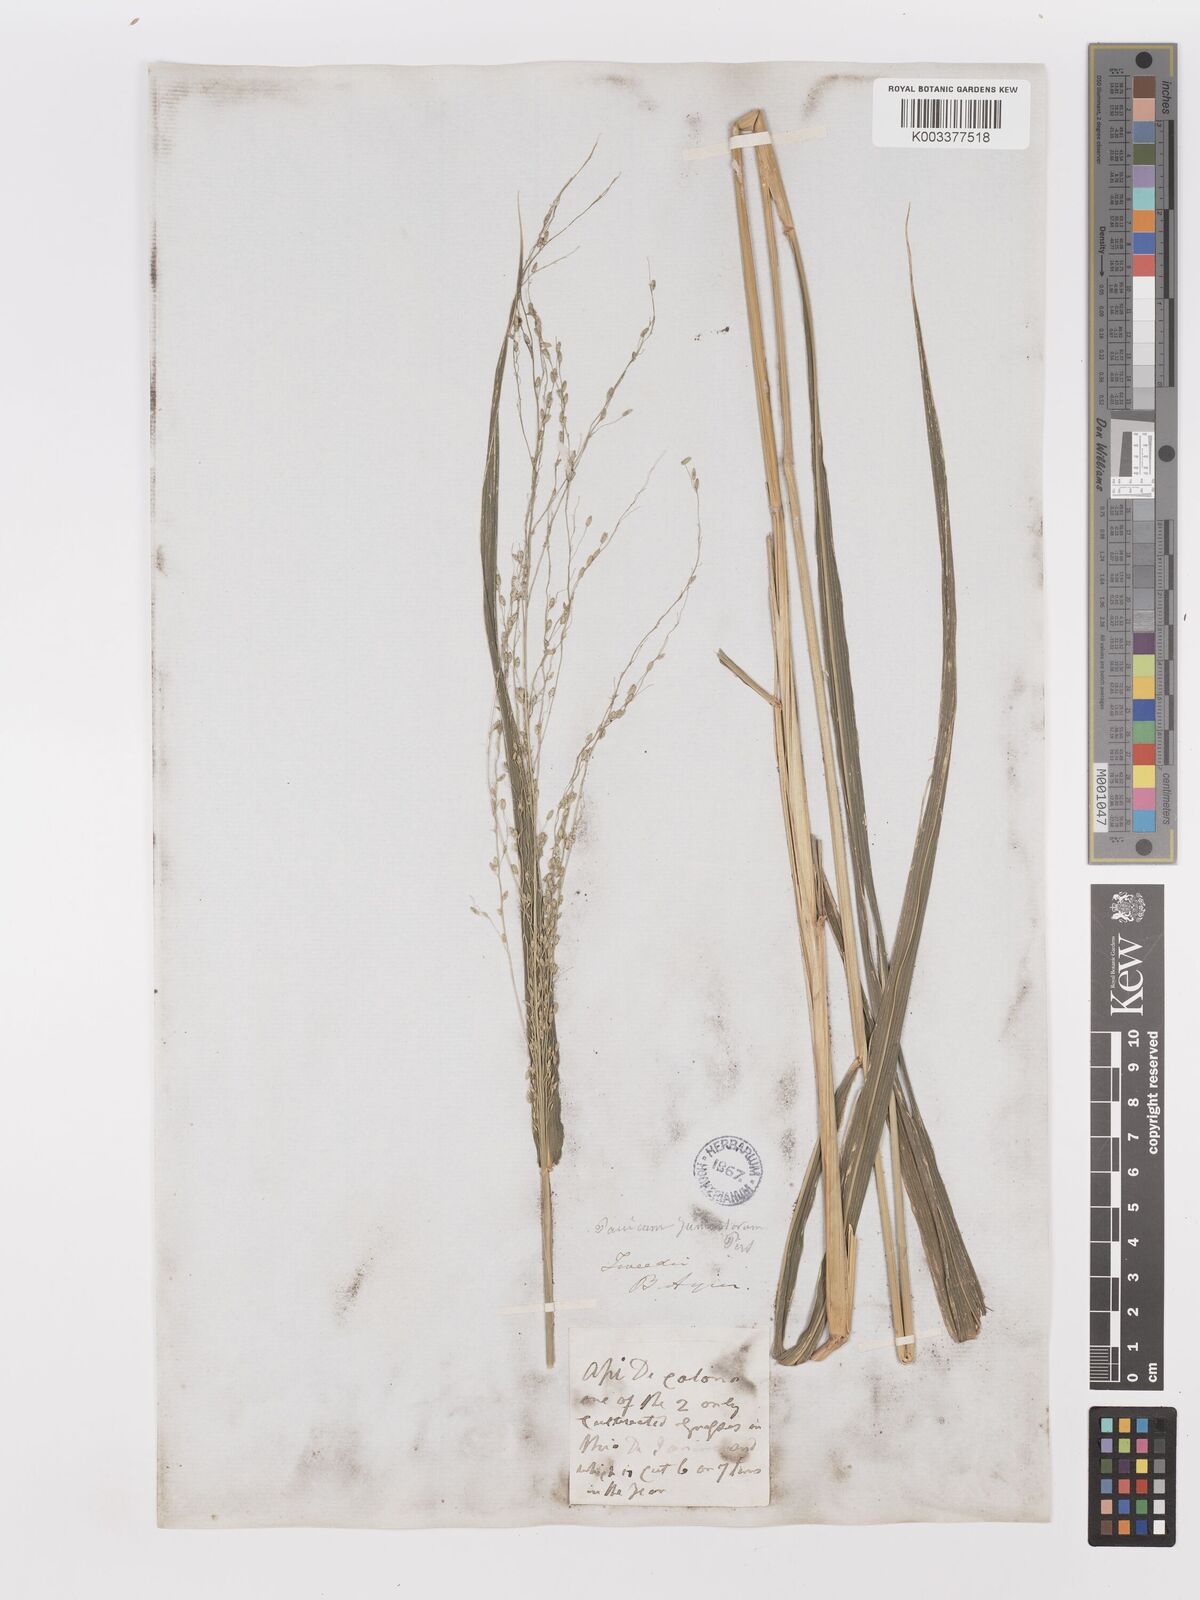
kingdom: Plantae
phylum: Tracheophyta
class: Liliopsida
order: Poales
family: Poaceae
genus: Megathyrsus
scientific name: Megathyrsus maximus
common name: Guineagrass
